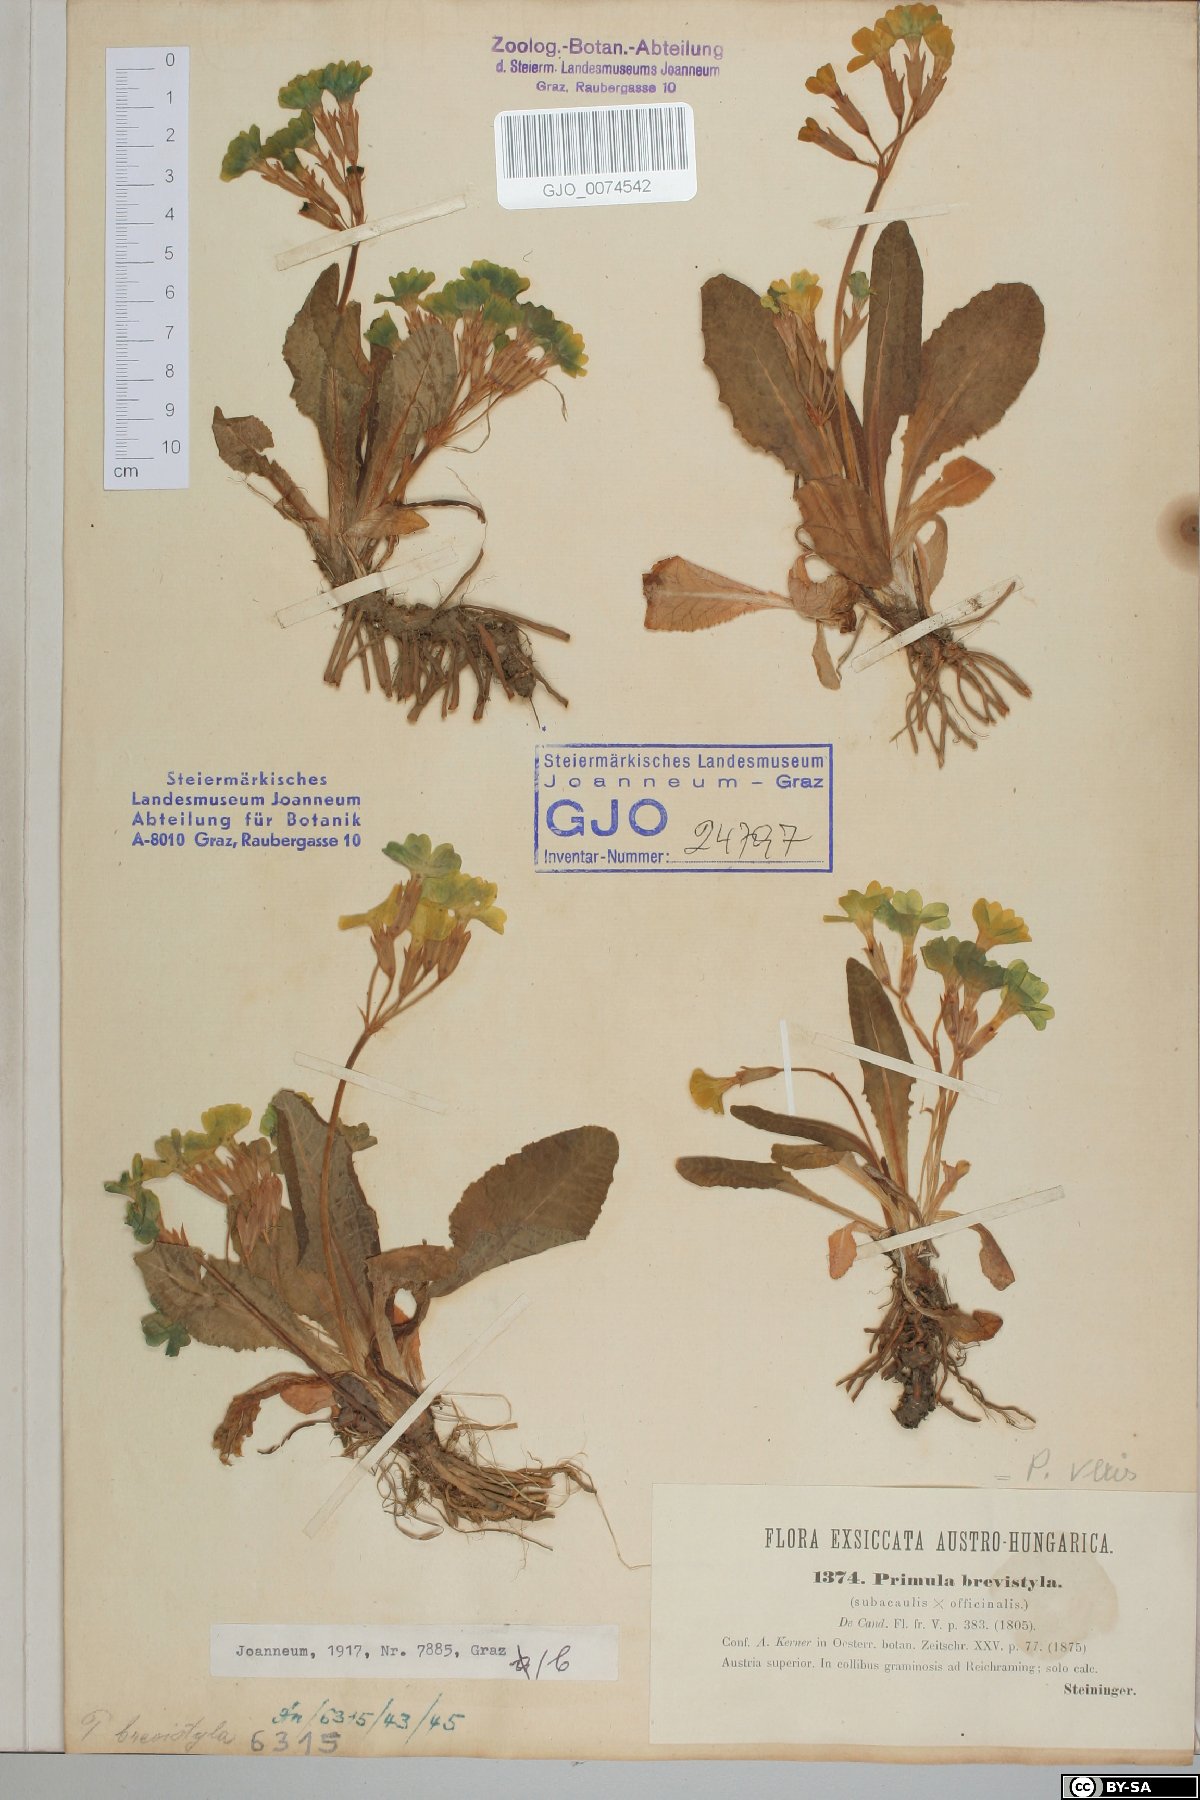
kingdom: Plantae
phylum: Tracheophyta
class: Magnoliopsida
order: Ericales
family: Primulaceae
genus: Primula
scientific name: Primula polyantha
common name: False oxlip
